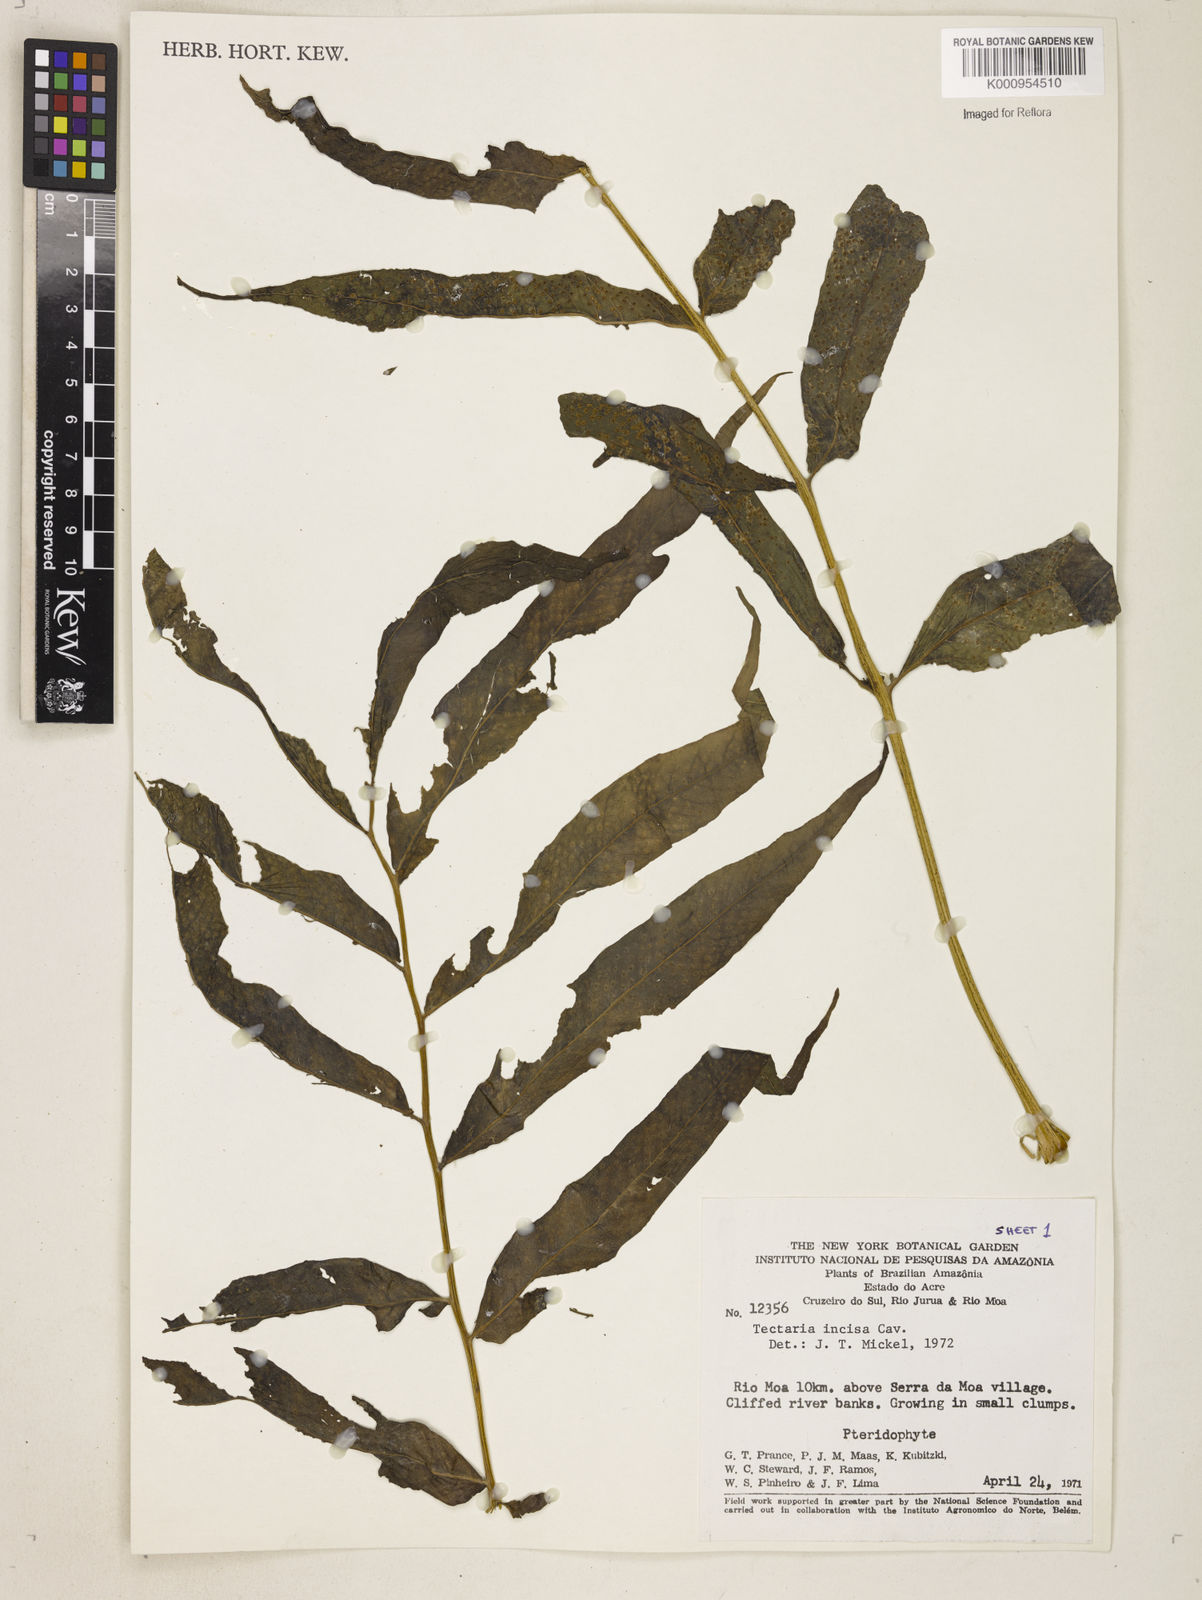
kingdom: Plantae
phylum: Tracheophyta
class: Polypodiopsida
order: Polypodiales
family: Tectariaceae
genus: Tectaria
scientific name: Tectaria incisa
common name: Incised halberd fern
